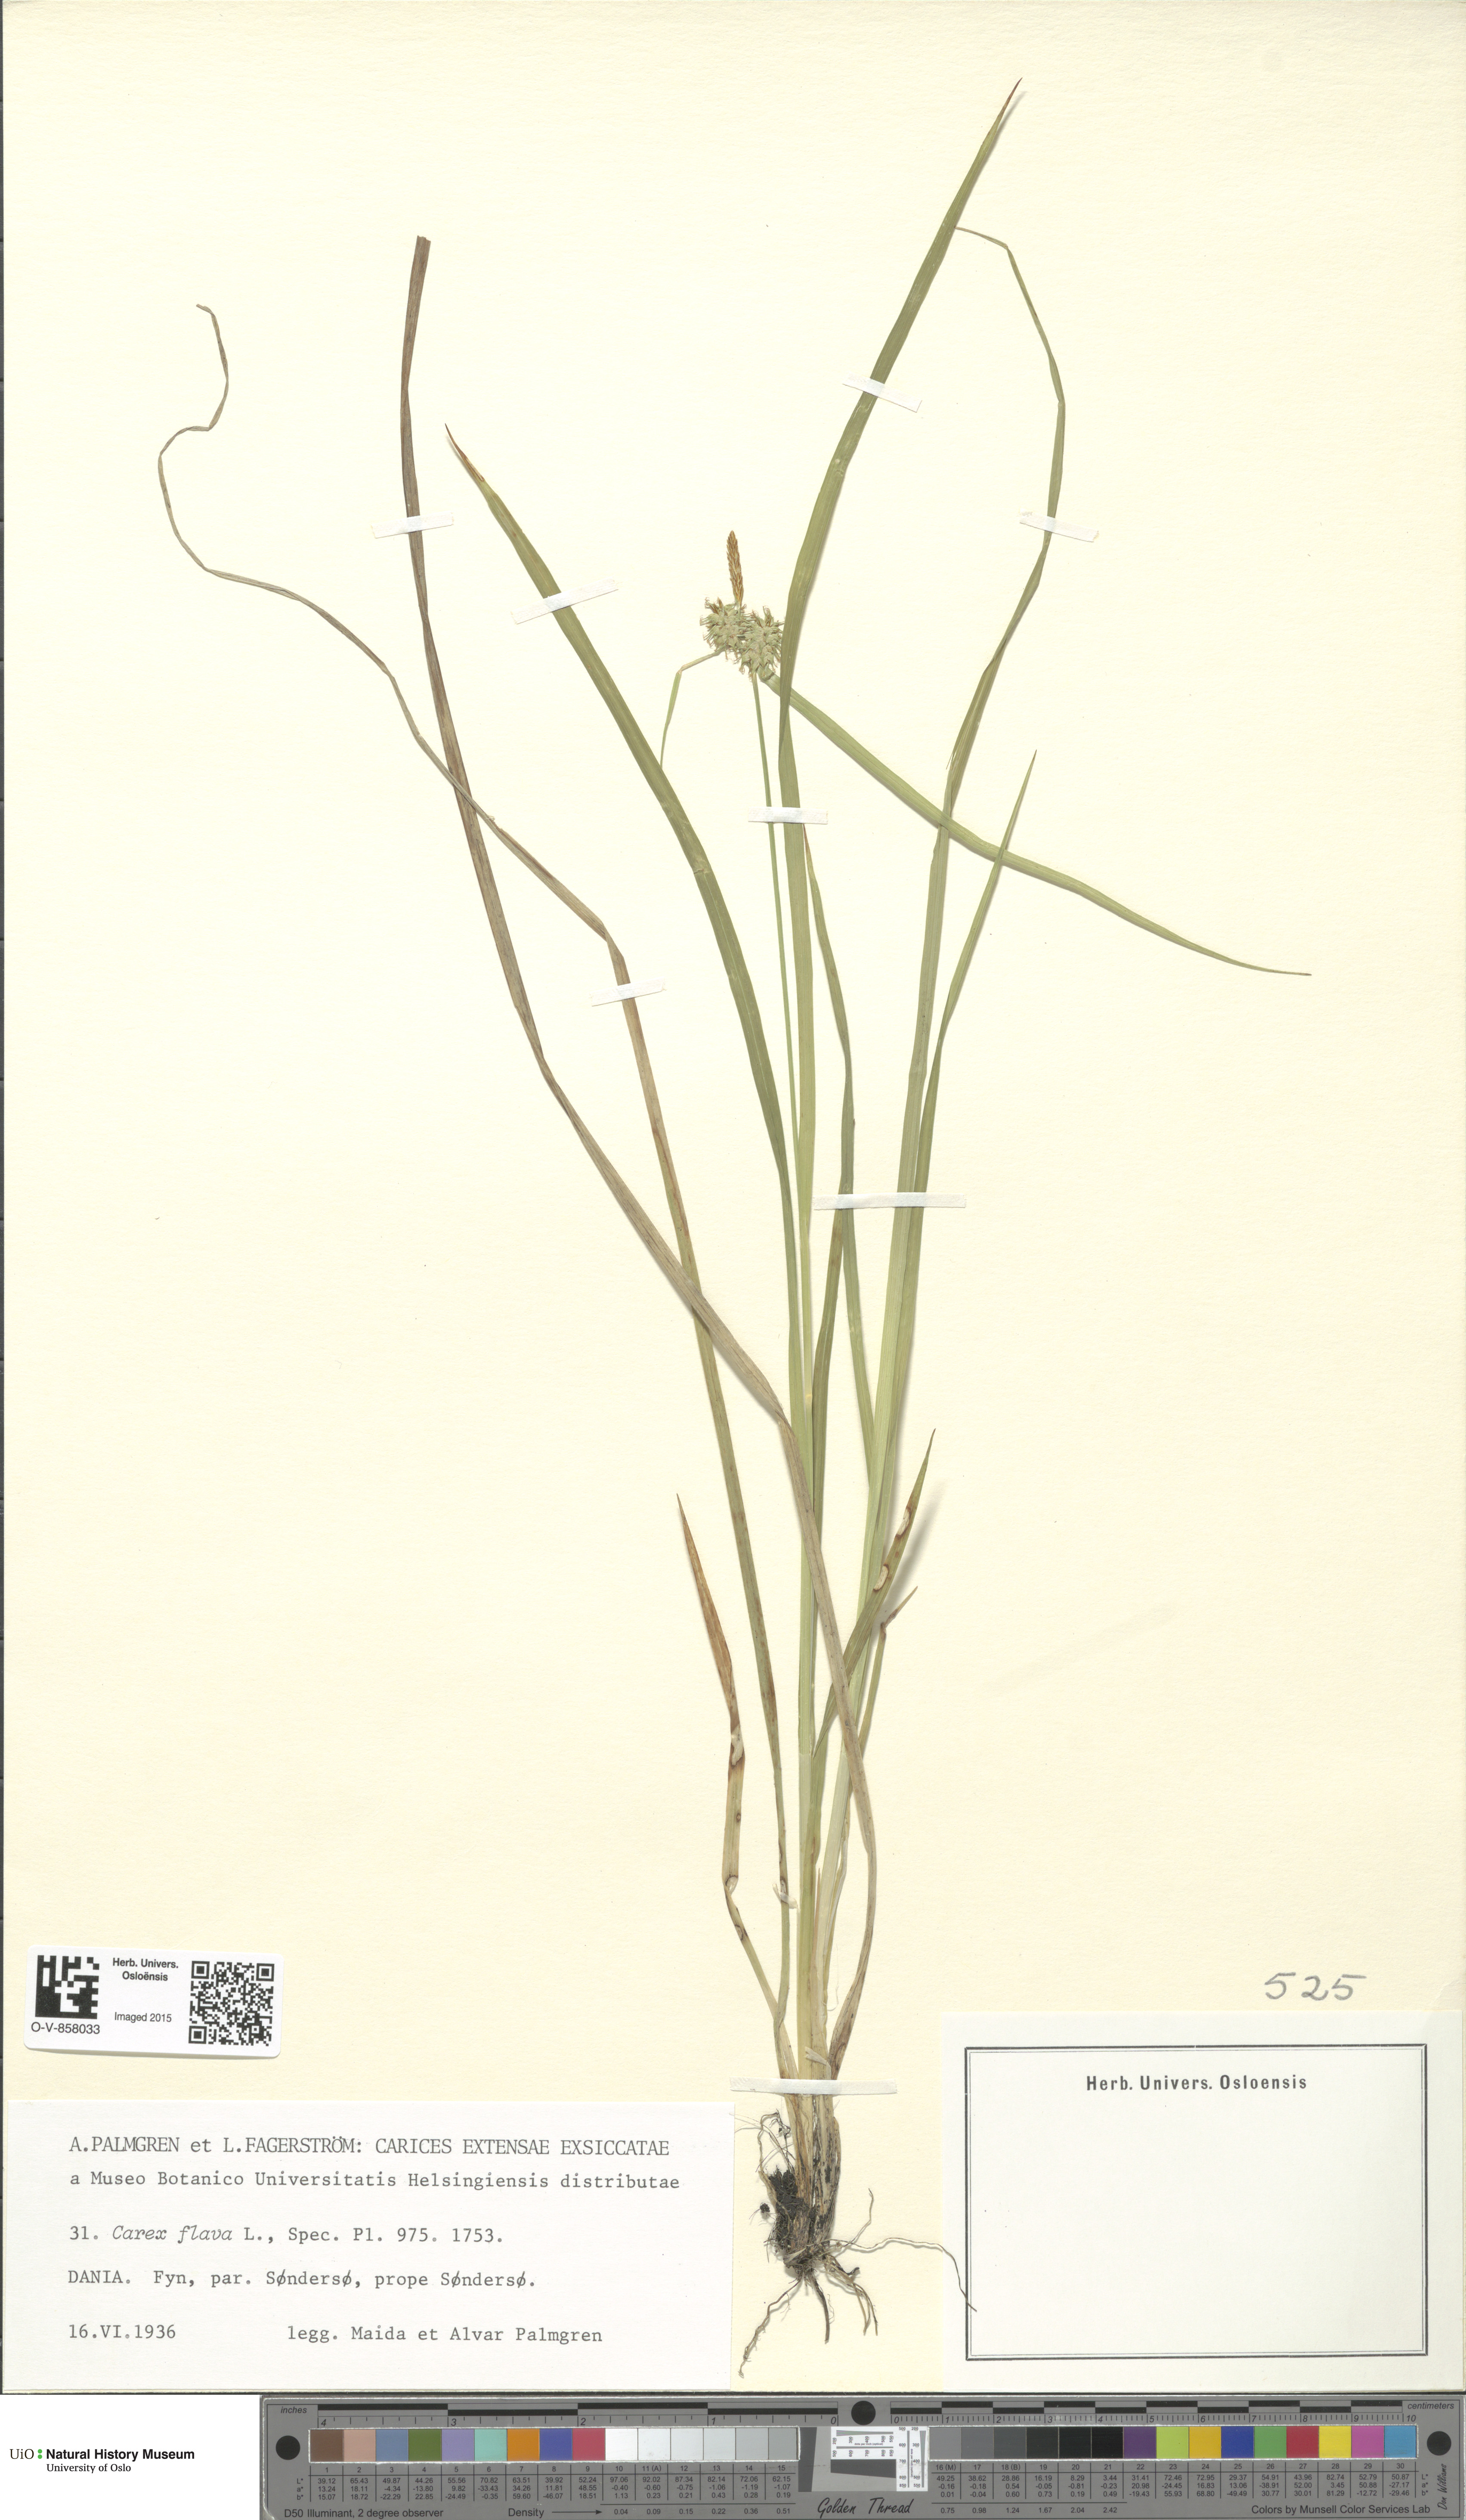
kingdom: Plantae
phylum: Tracheophyta
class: Liliopsida
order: Poales
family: Cyperaceae
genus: Carex
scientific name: Carex flava
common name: Large yellow-sedge
